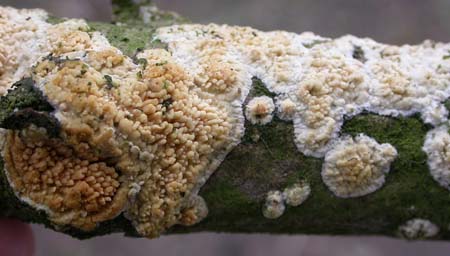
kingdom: Fungi
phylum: Basidiomycota
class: Agaricomycetes
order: Hymenochaetales
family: Schizoporaceae
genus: Xylodon
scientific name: Xylodon radula
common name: grovtandet kalkskind
